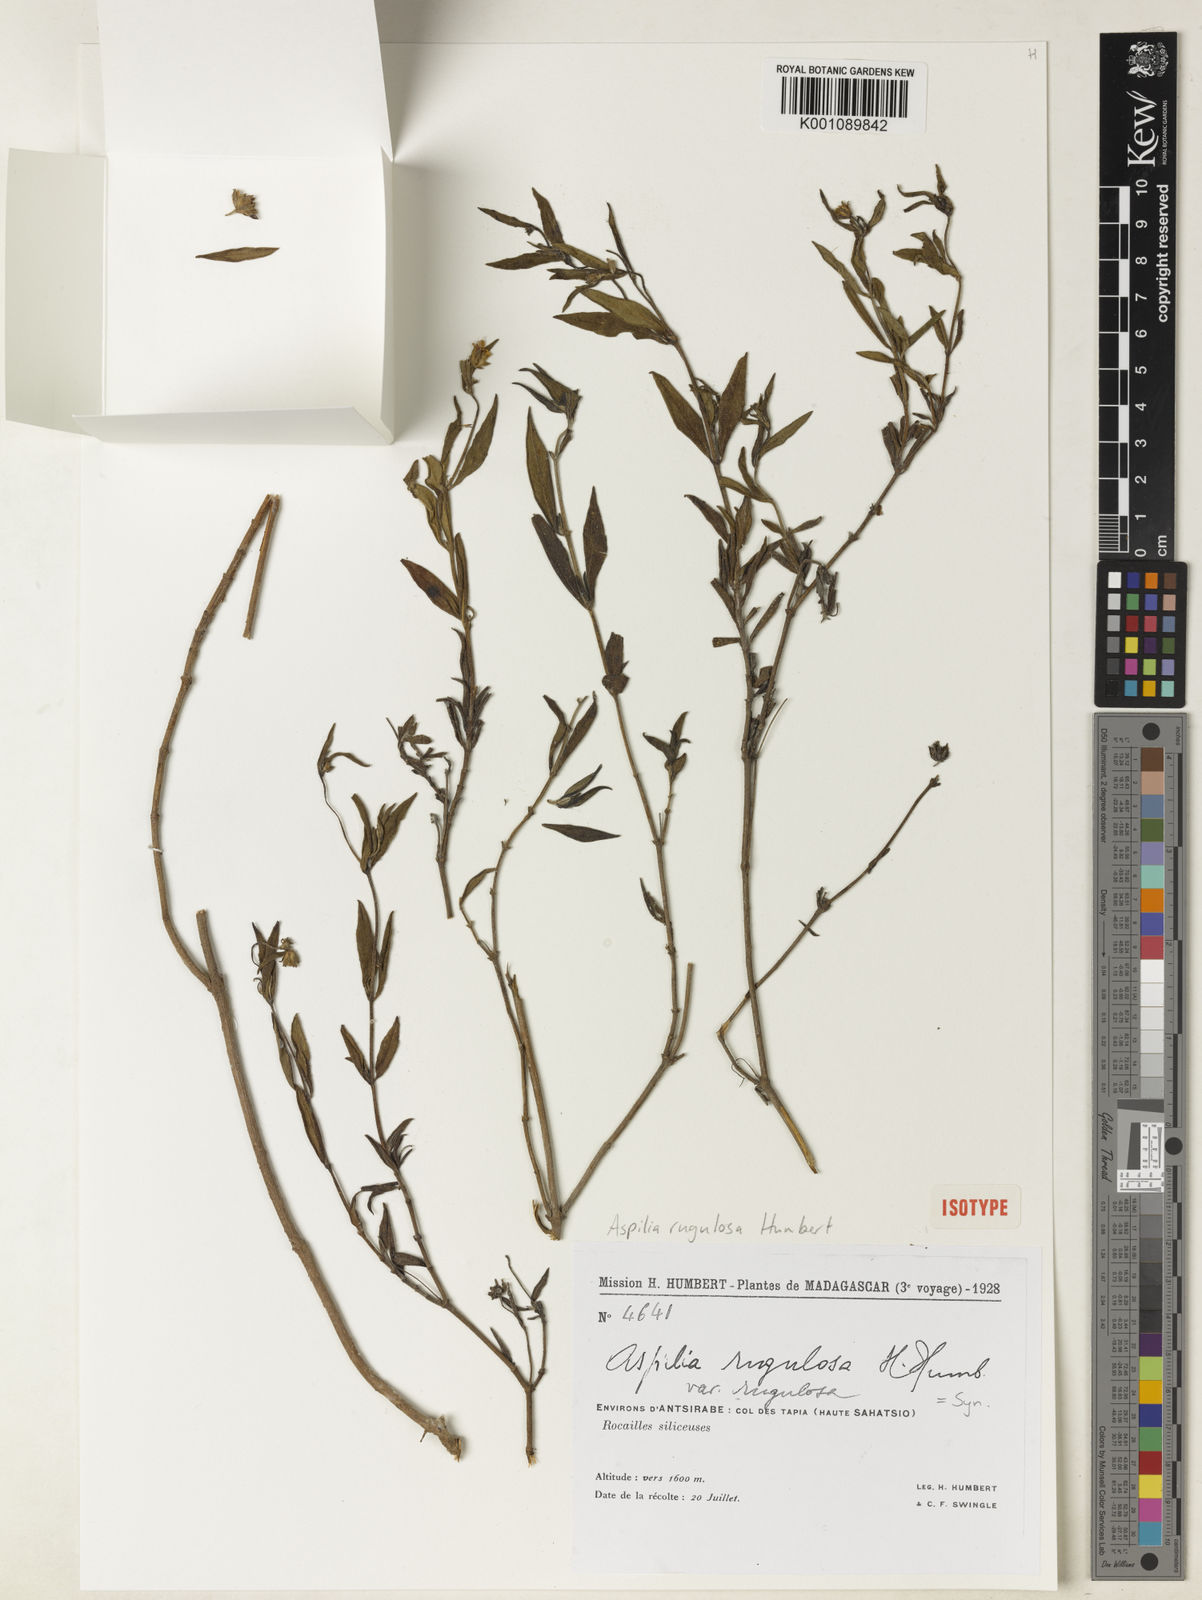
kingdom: Plantae
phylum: Tracheophyta
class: Magnoliopsida
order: Asterales
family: Asteraceae
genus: Aspilia
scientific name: Aspilia rugulosa
